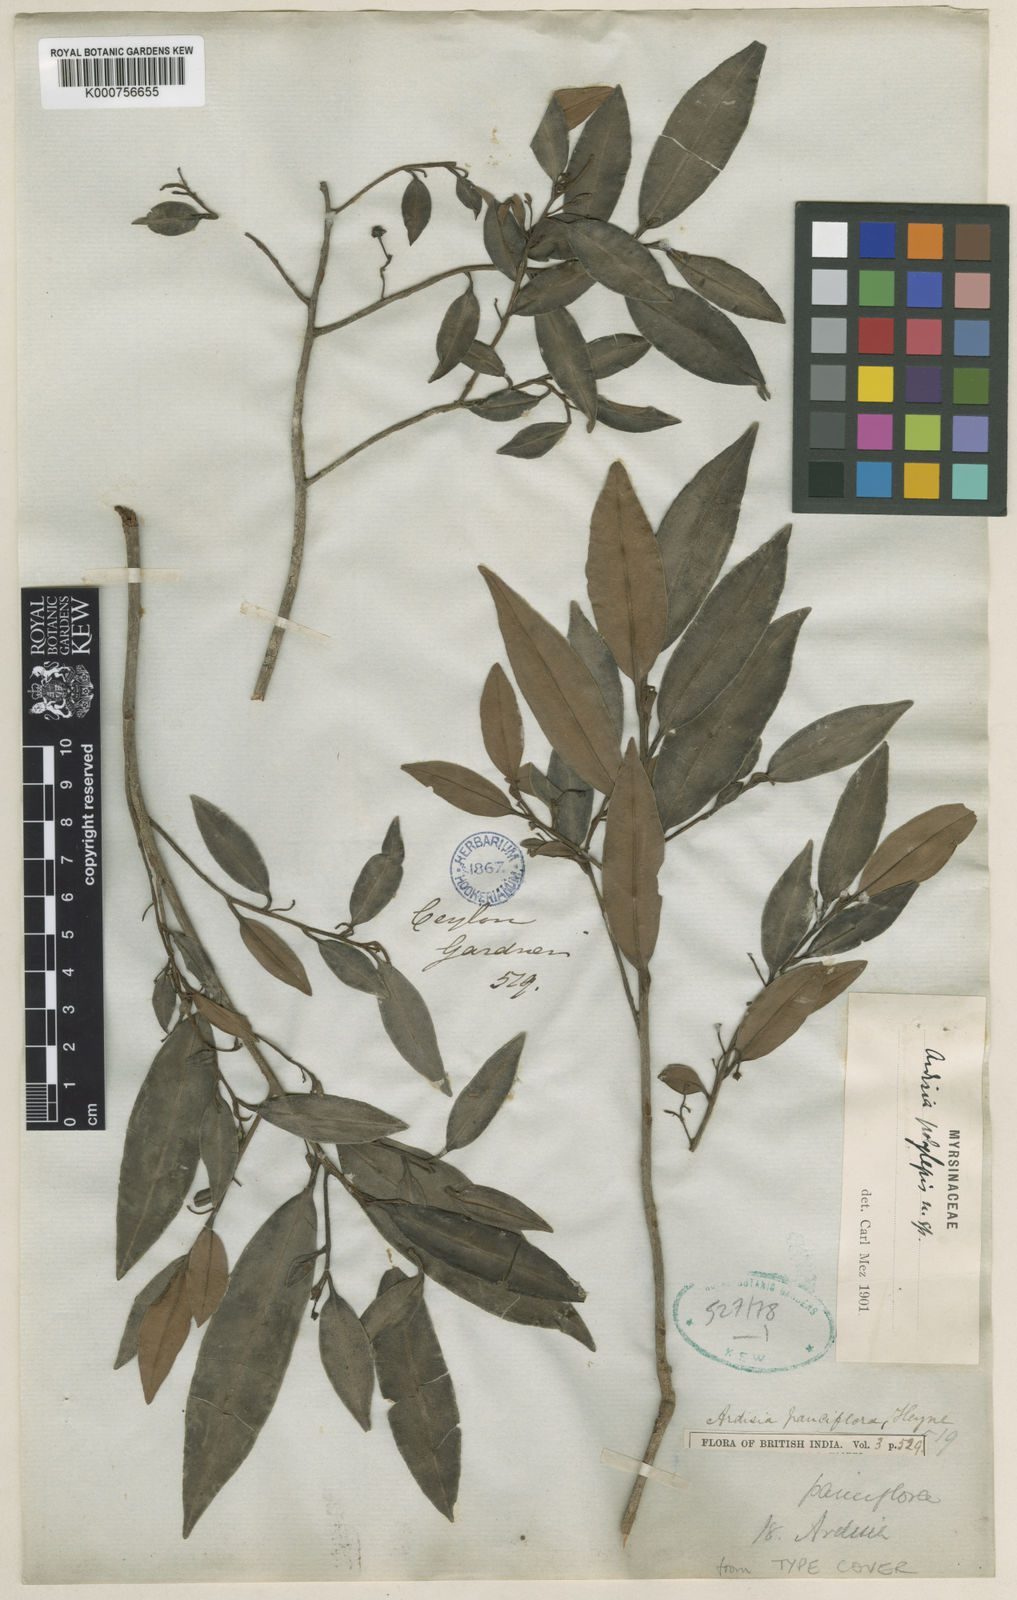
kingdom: Plantae
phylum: Tracheophyta
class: Magnoliopsida
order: Ericales
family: Primulaceae
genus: Ardisia
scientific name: Ardisia polylepis
